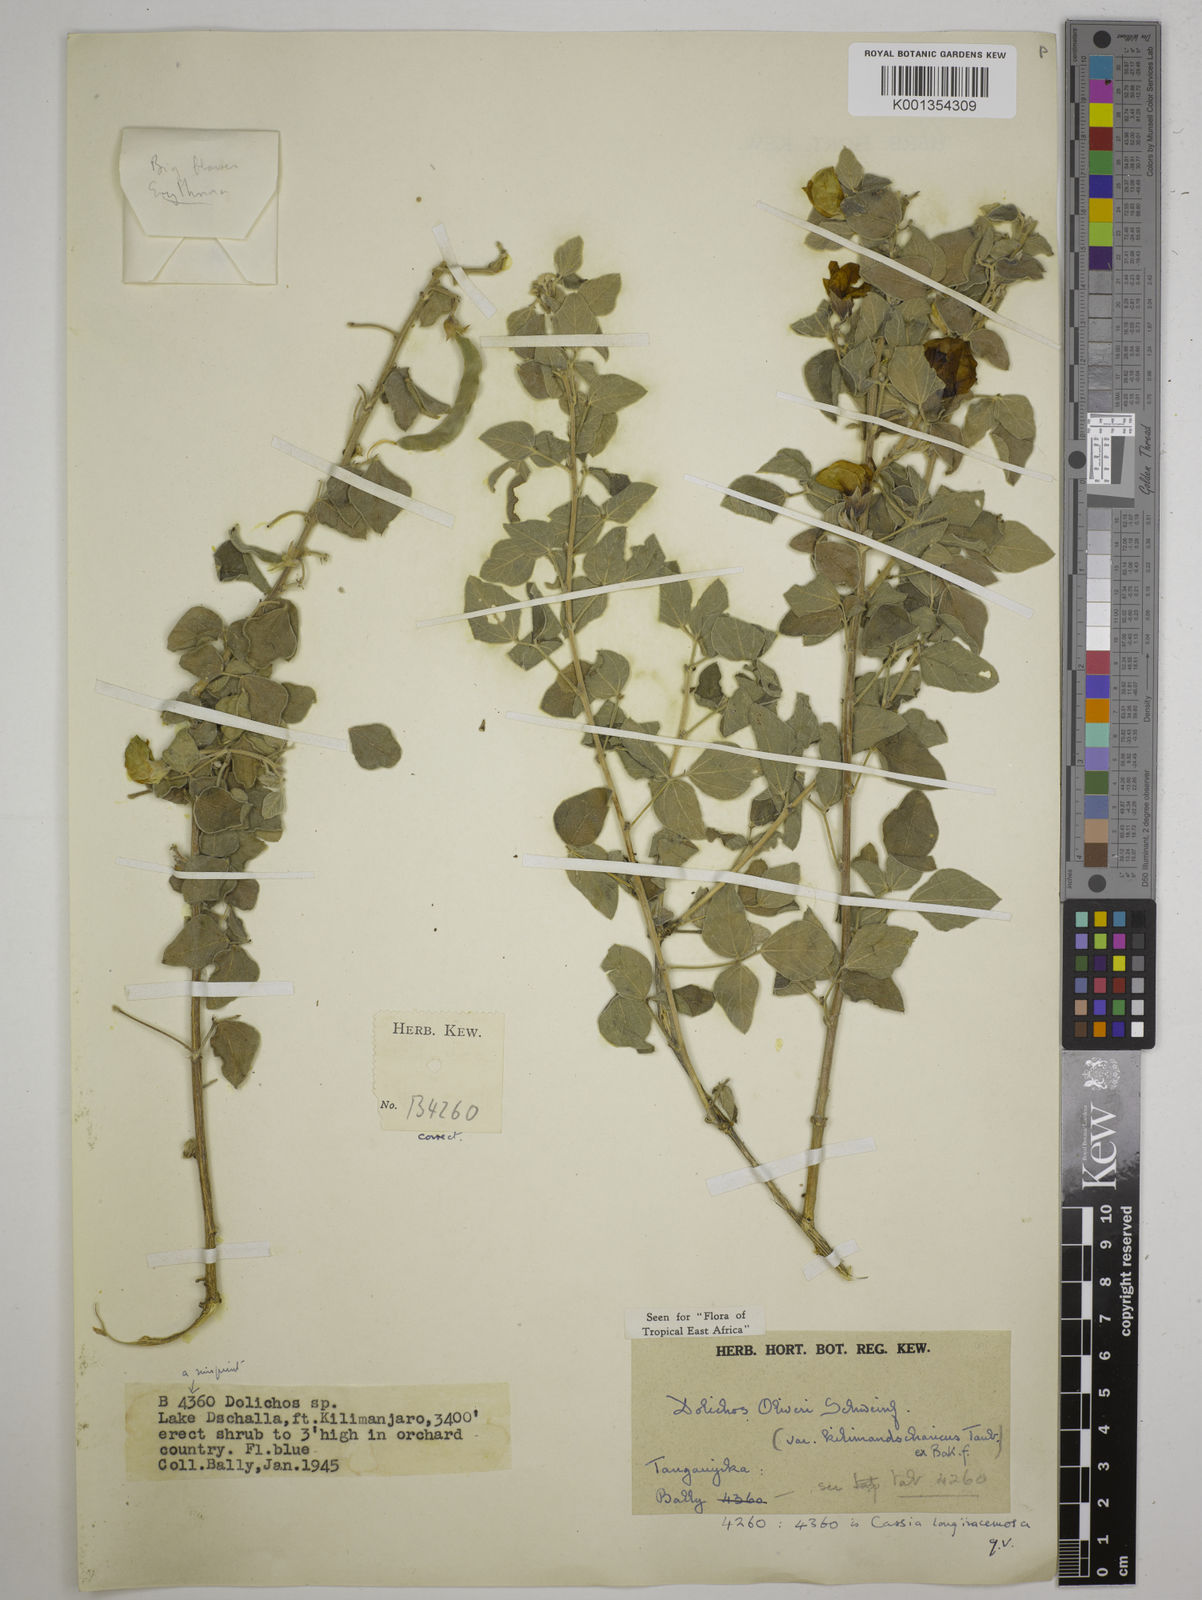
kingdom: Plantae
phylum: Tracheophyta
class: Magnoliopsida
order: Fabales
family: Fabaceae
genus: Dolichos
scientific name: Dolichos oliveri
